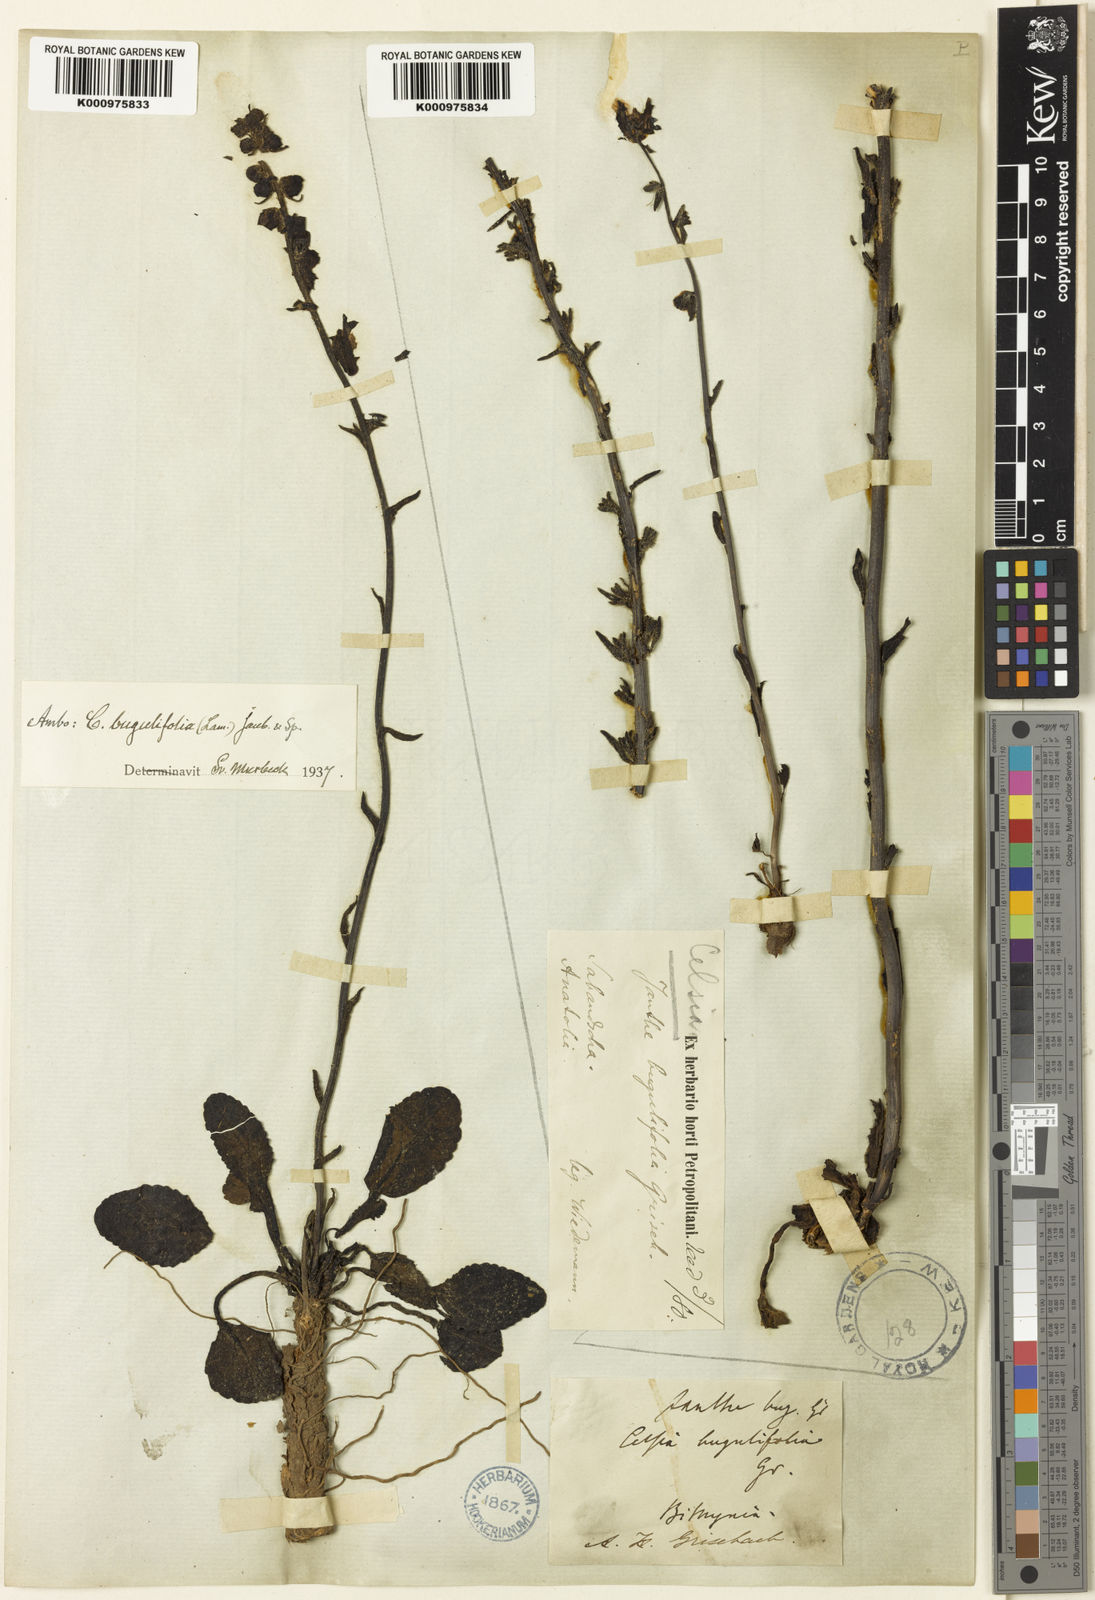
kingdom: Plantae
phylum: Tracheophyta
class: Magnoliopsida
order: Lamiales
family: Scrophulariaceae
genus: Verbascum
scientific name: Verbascum bugulifolium
